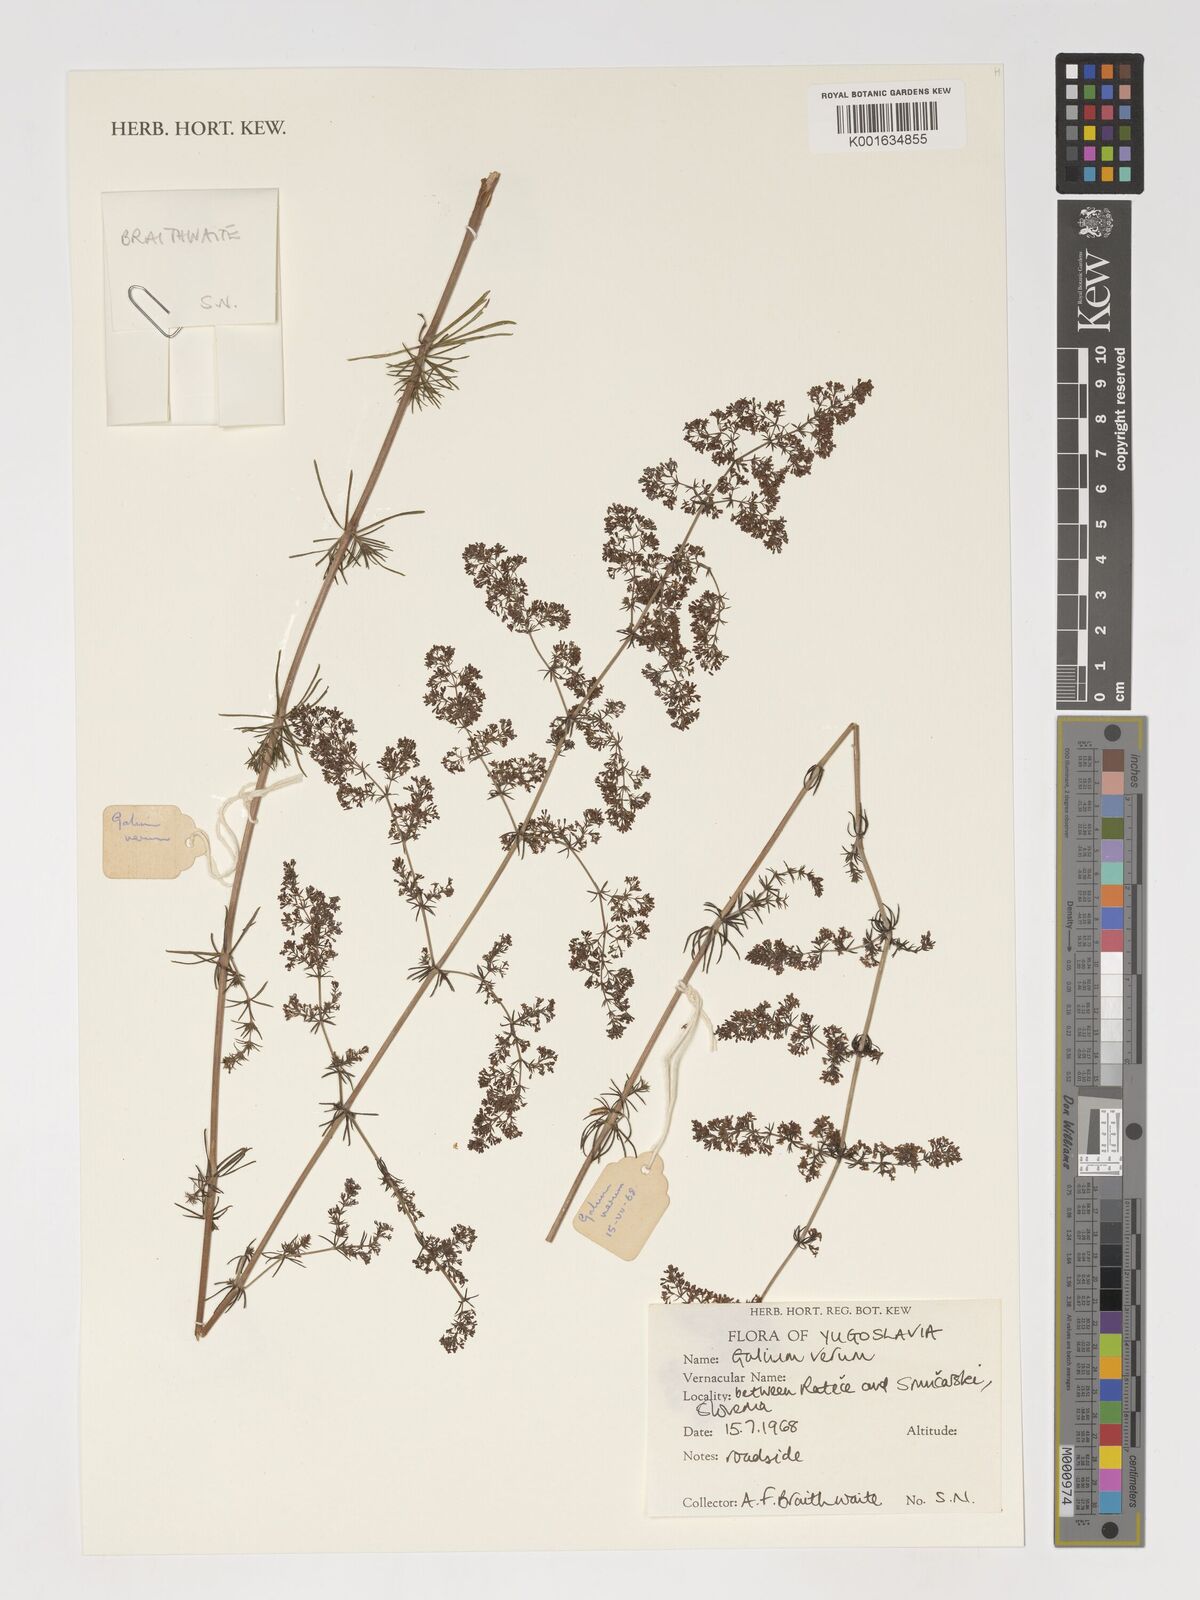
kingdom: Plantae
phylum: Tracheophyta
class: Magnoliopsida
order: Gentianales
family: Rubiaceae
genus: Galium
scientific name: Galium verum
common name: Lady's bedstraw
